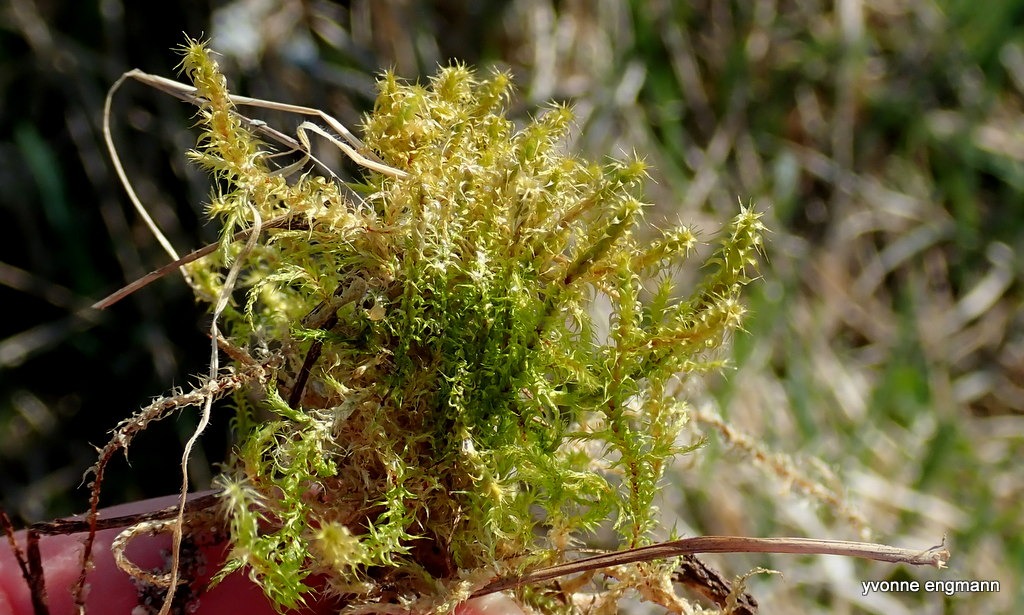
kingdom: Plantae
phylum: Bryophyta
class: Bryopsida
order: Hypnales
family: Hylocomiaceae
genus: Rhytidiadelphus
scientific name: Rhytidiadelphus squarrosus
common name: Plæne-kransemos
